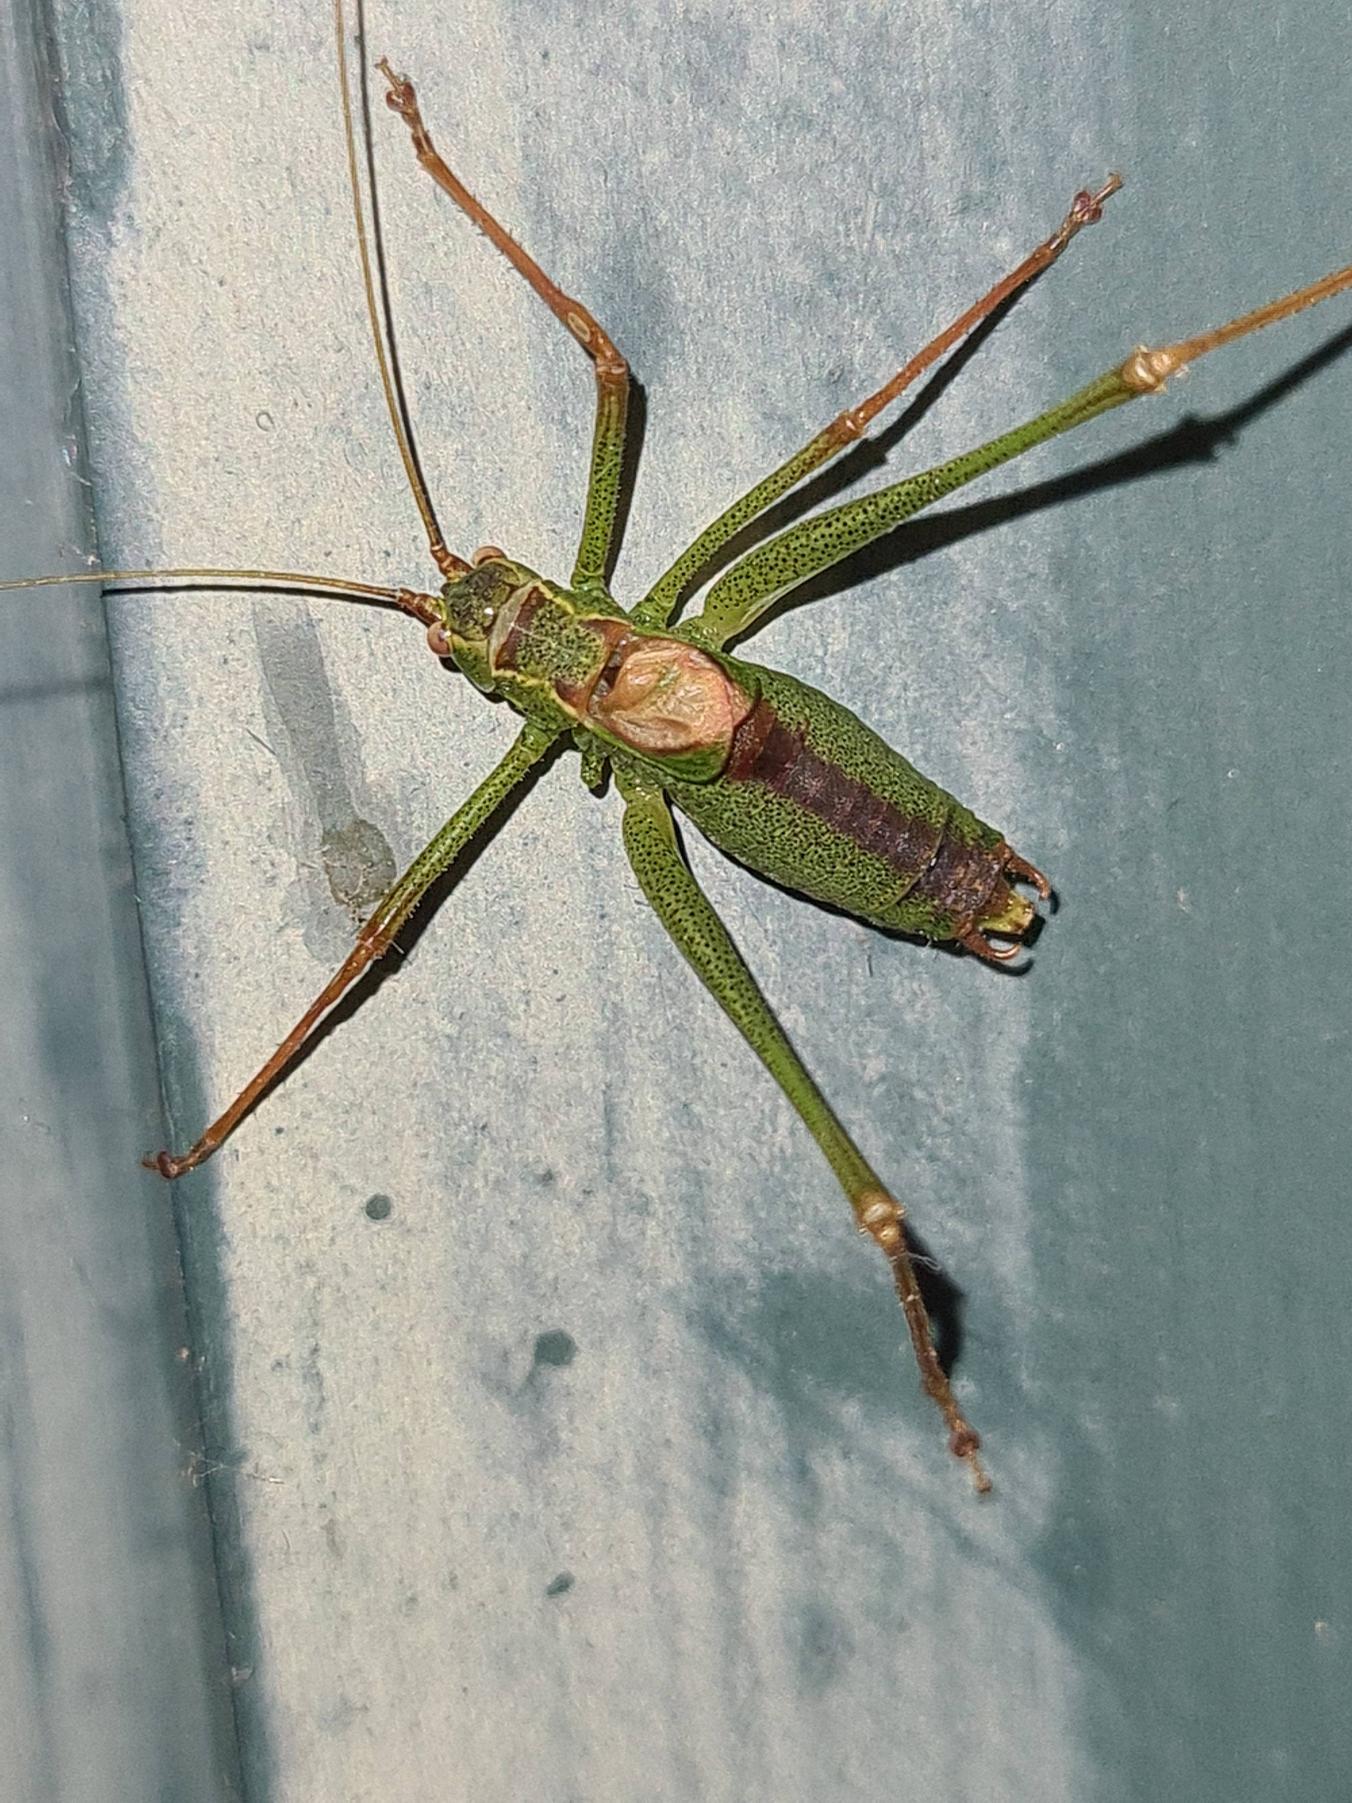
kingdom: Animalia
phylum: Arthropoda
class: Insecta
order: Orthoptera
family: Tettigoniidae
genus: Leptophyes
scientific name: Leptophyes punctatissima
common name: Krumknivgræshoppe
